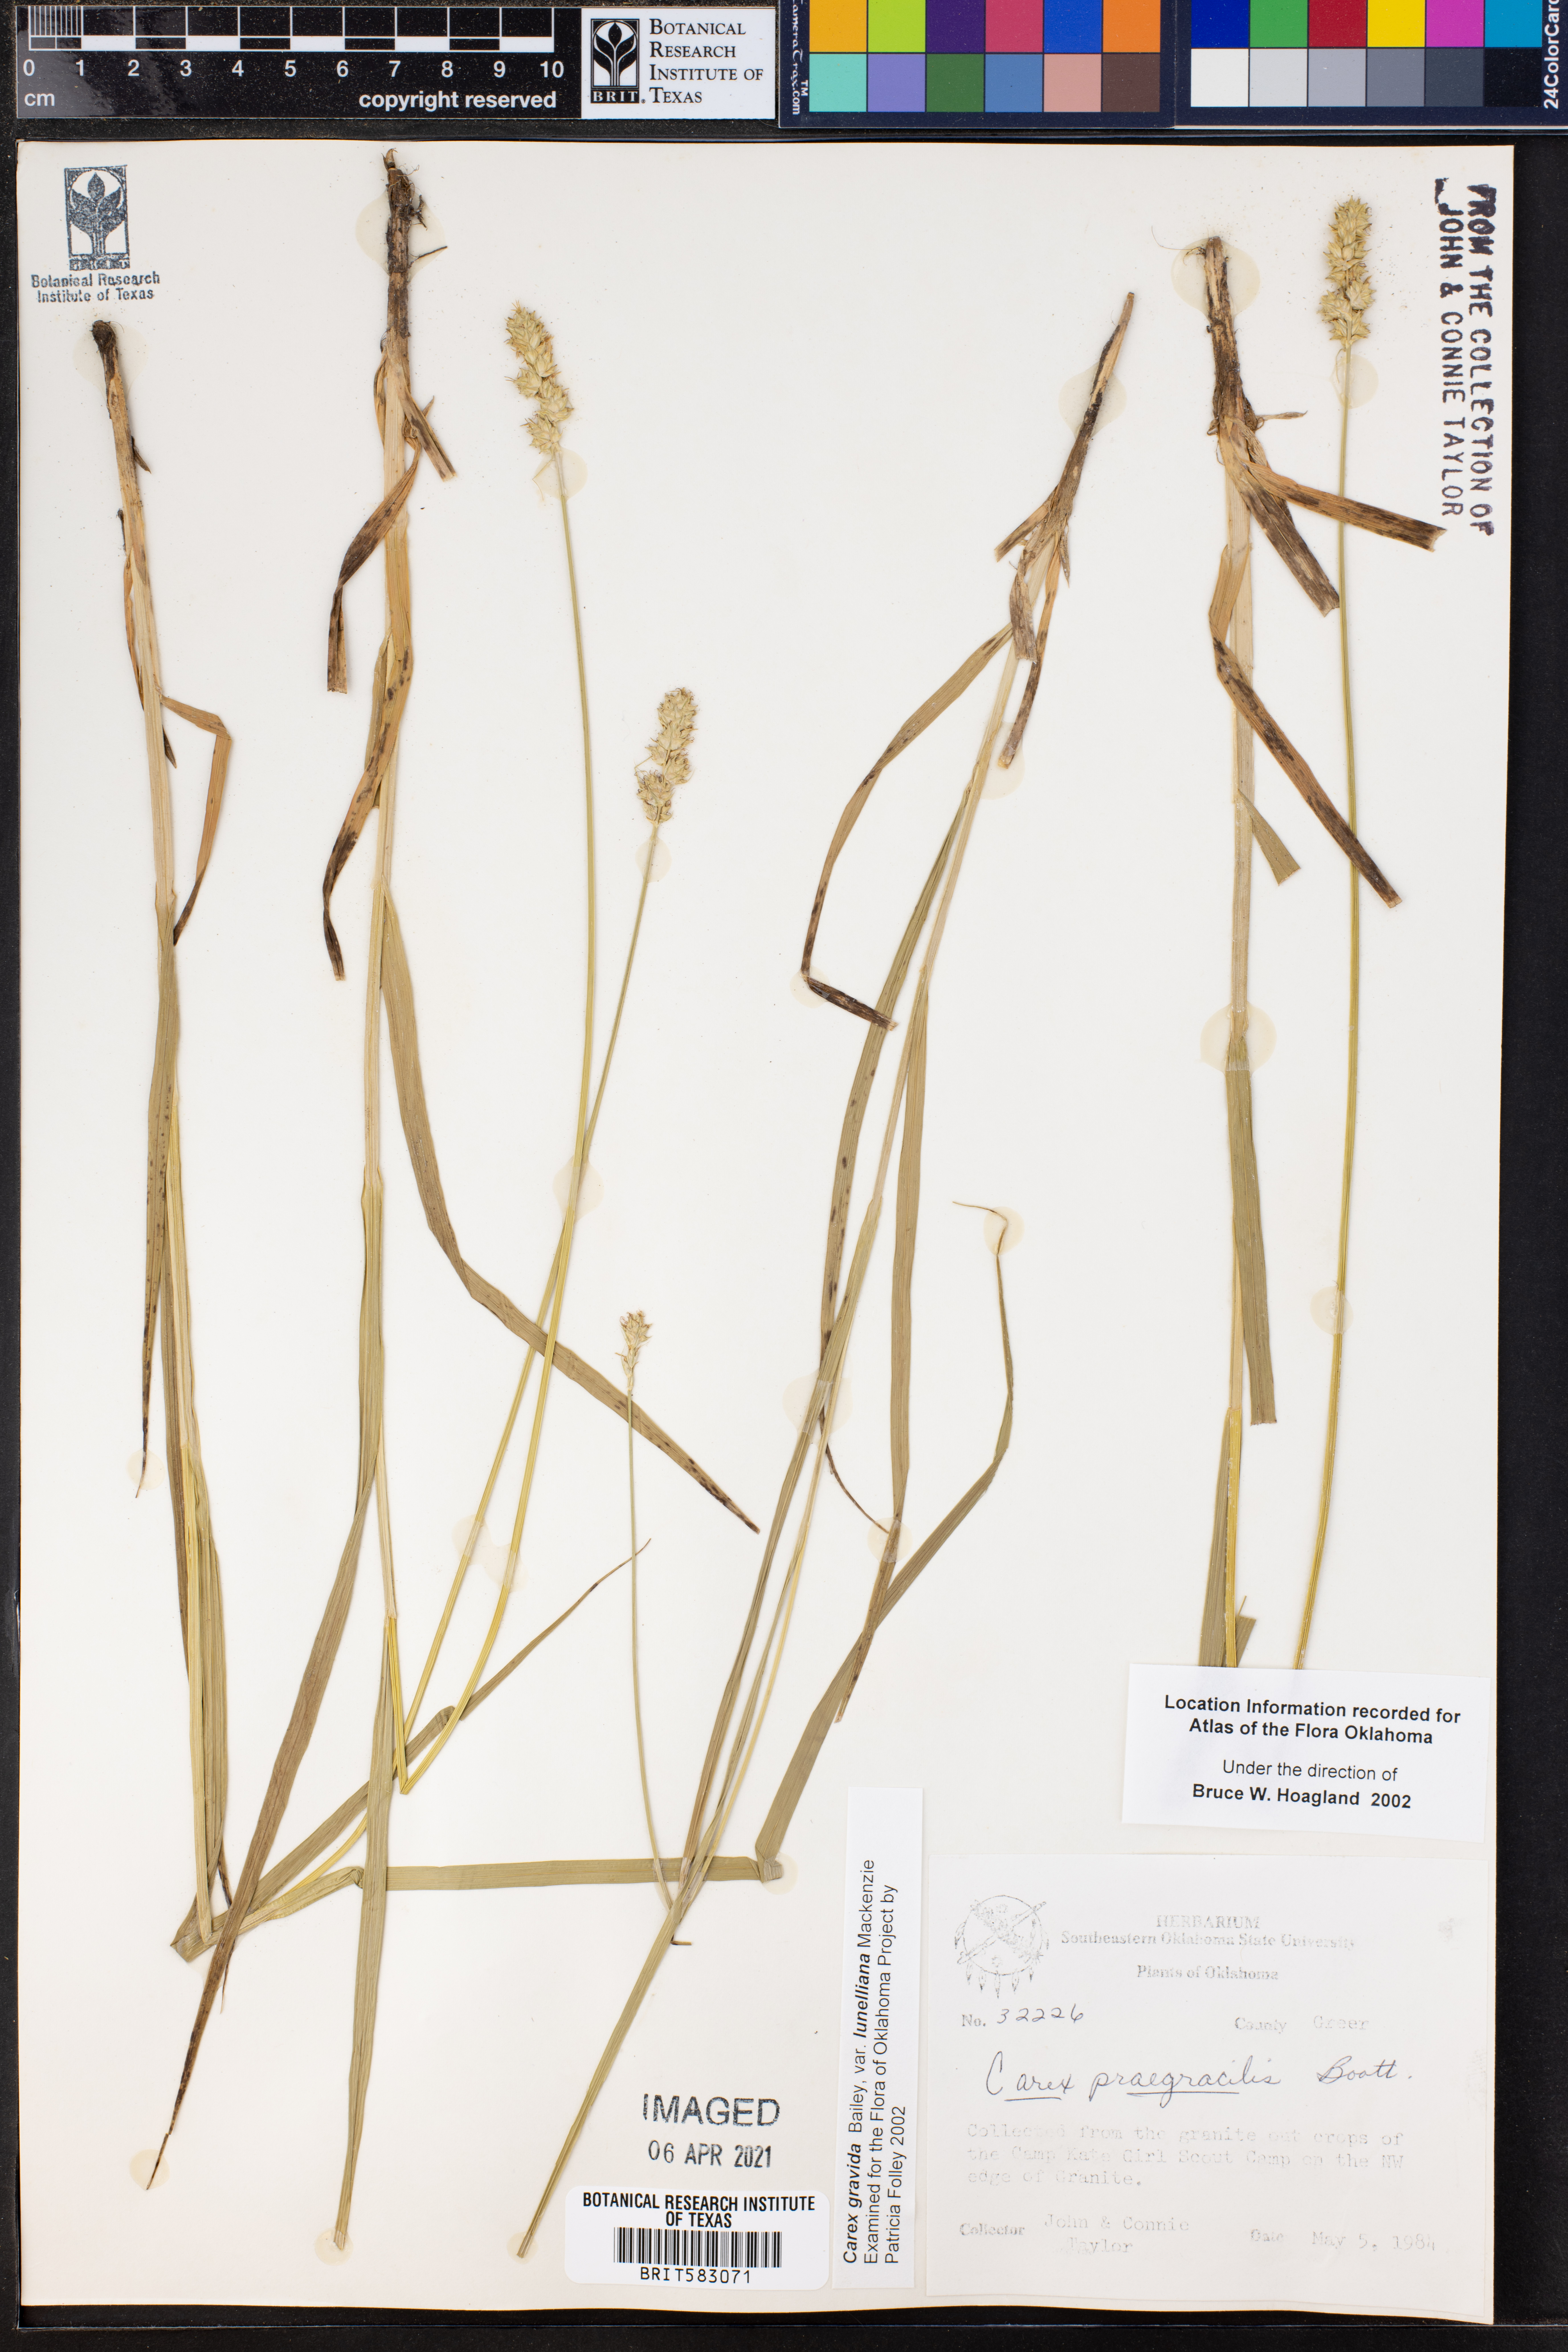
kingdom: Plantae
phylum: Tracheophyta
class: Liliopsida
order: Poales
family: Cyperaceae
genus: Carex
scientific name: Carex gravida
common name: Heavy sedge
